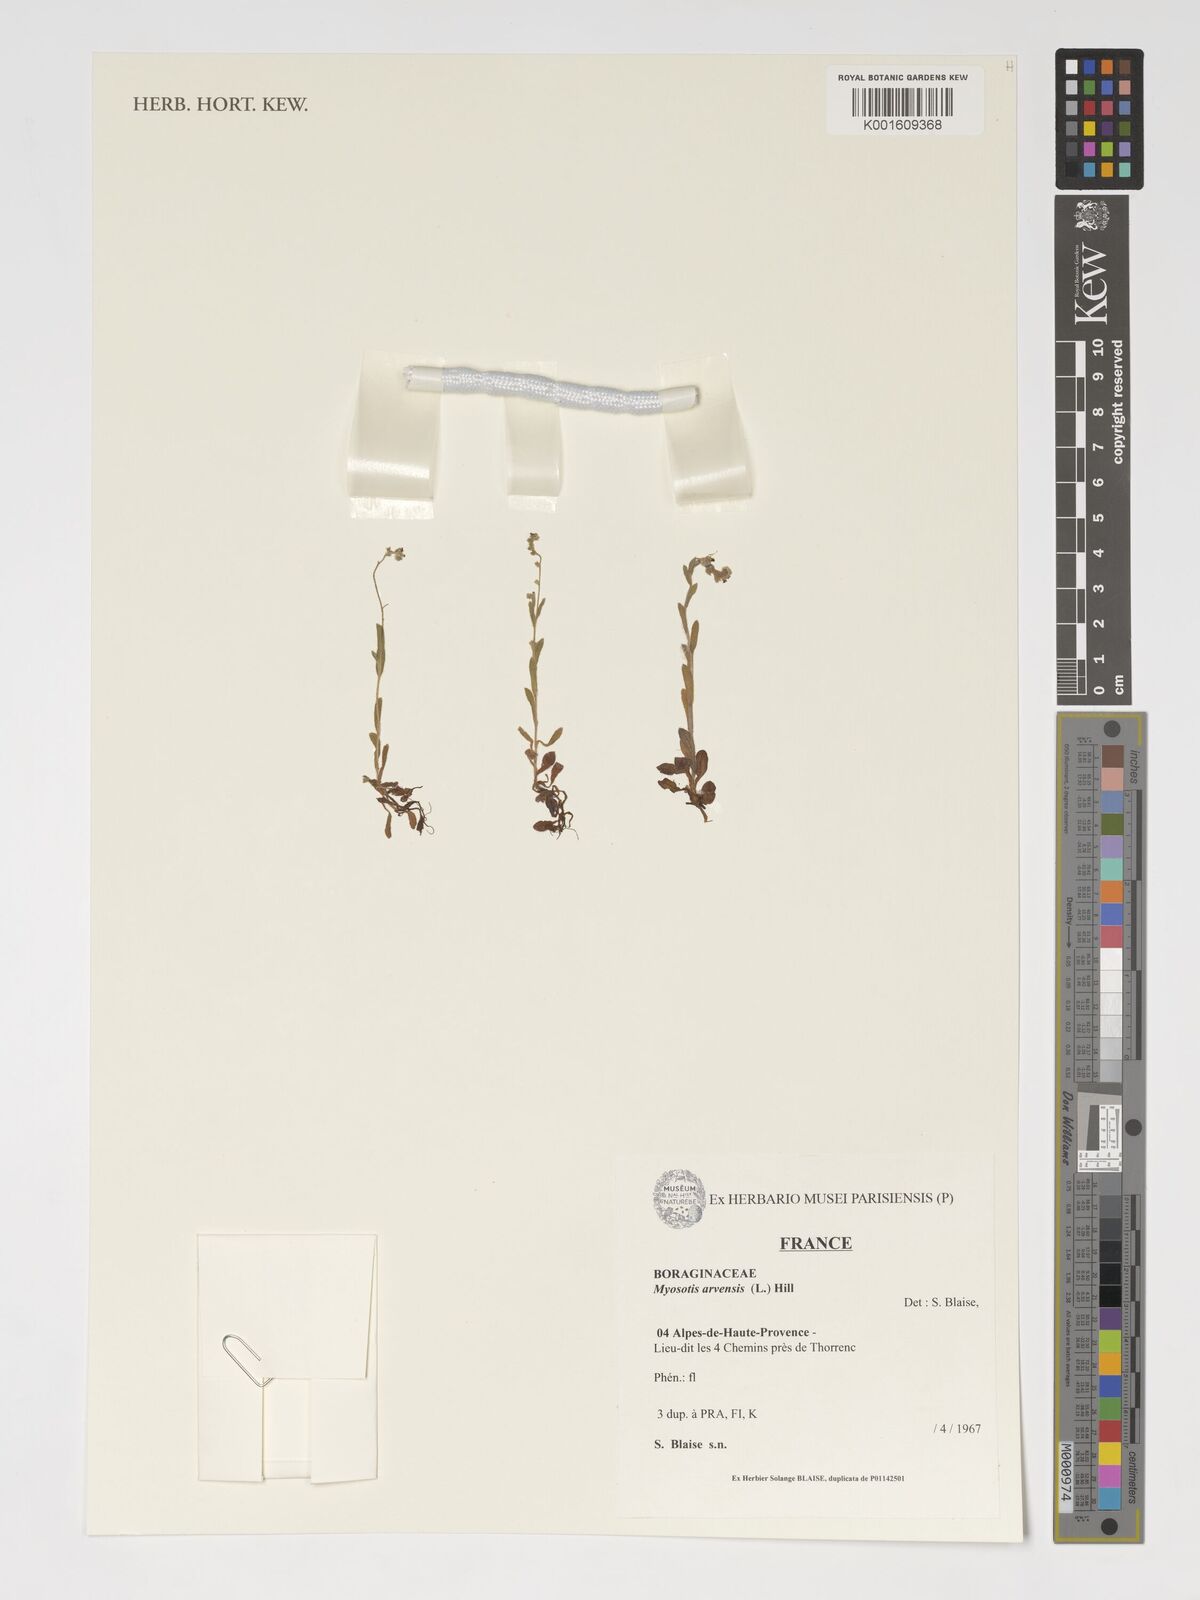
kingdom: Plantae
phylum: Tracheophyta
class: Magnoliopsida
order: Boraginales
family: Boraginaceae
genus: Myosotis
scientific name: Myosotis arvensis
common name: Field forget-me-not
